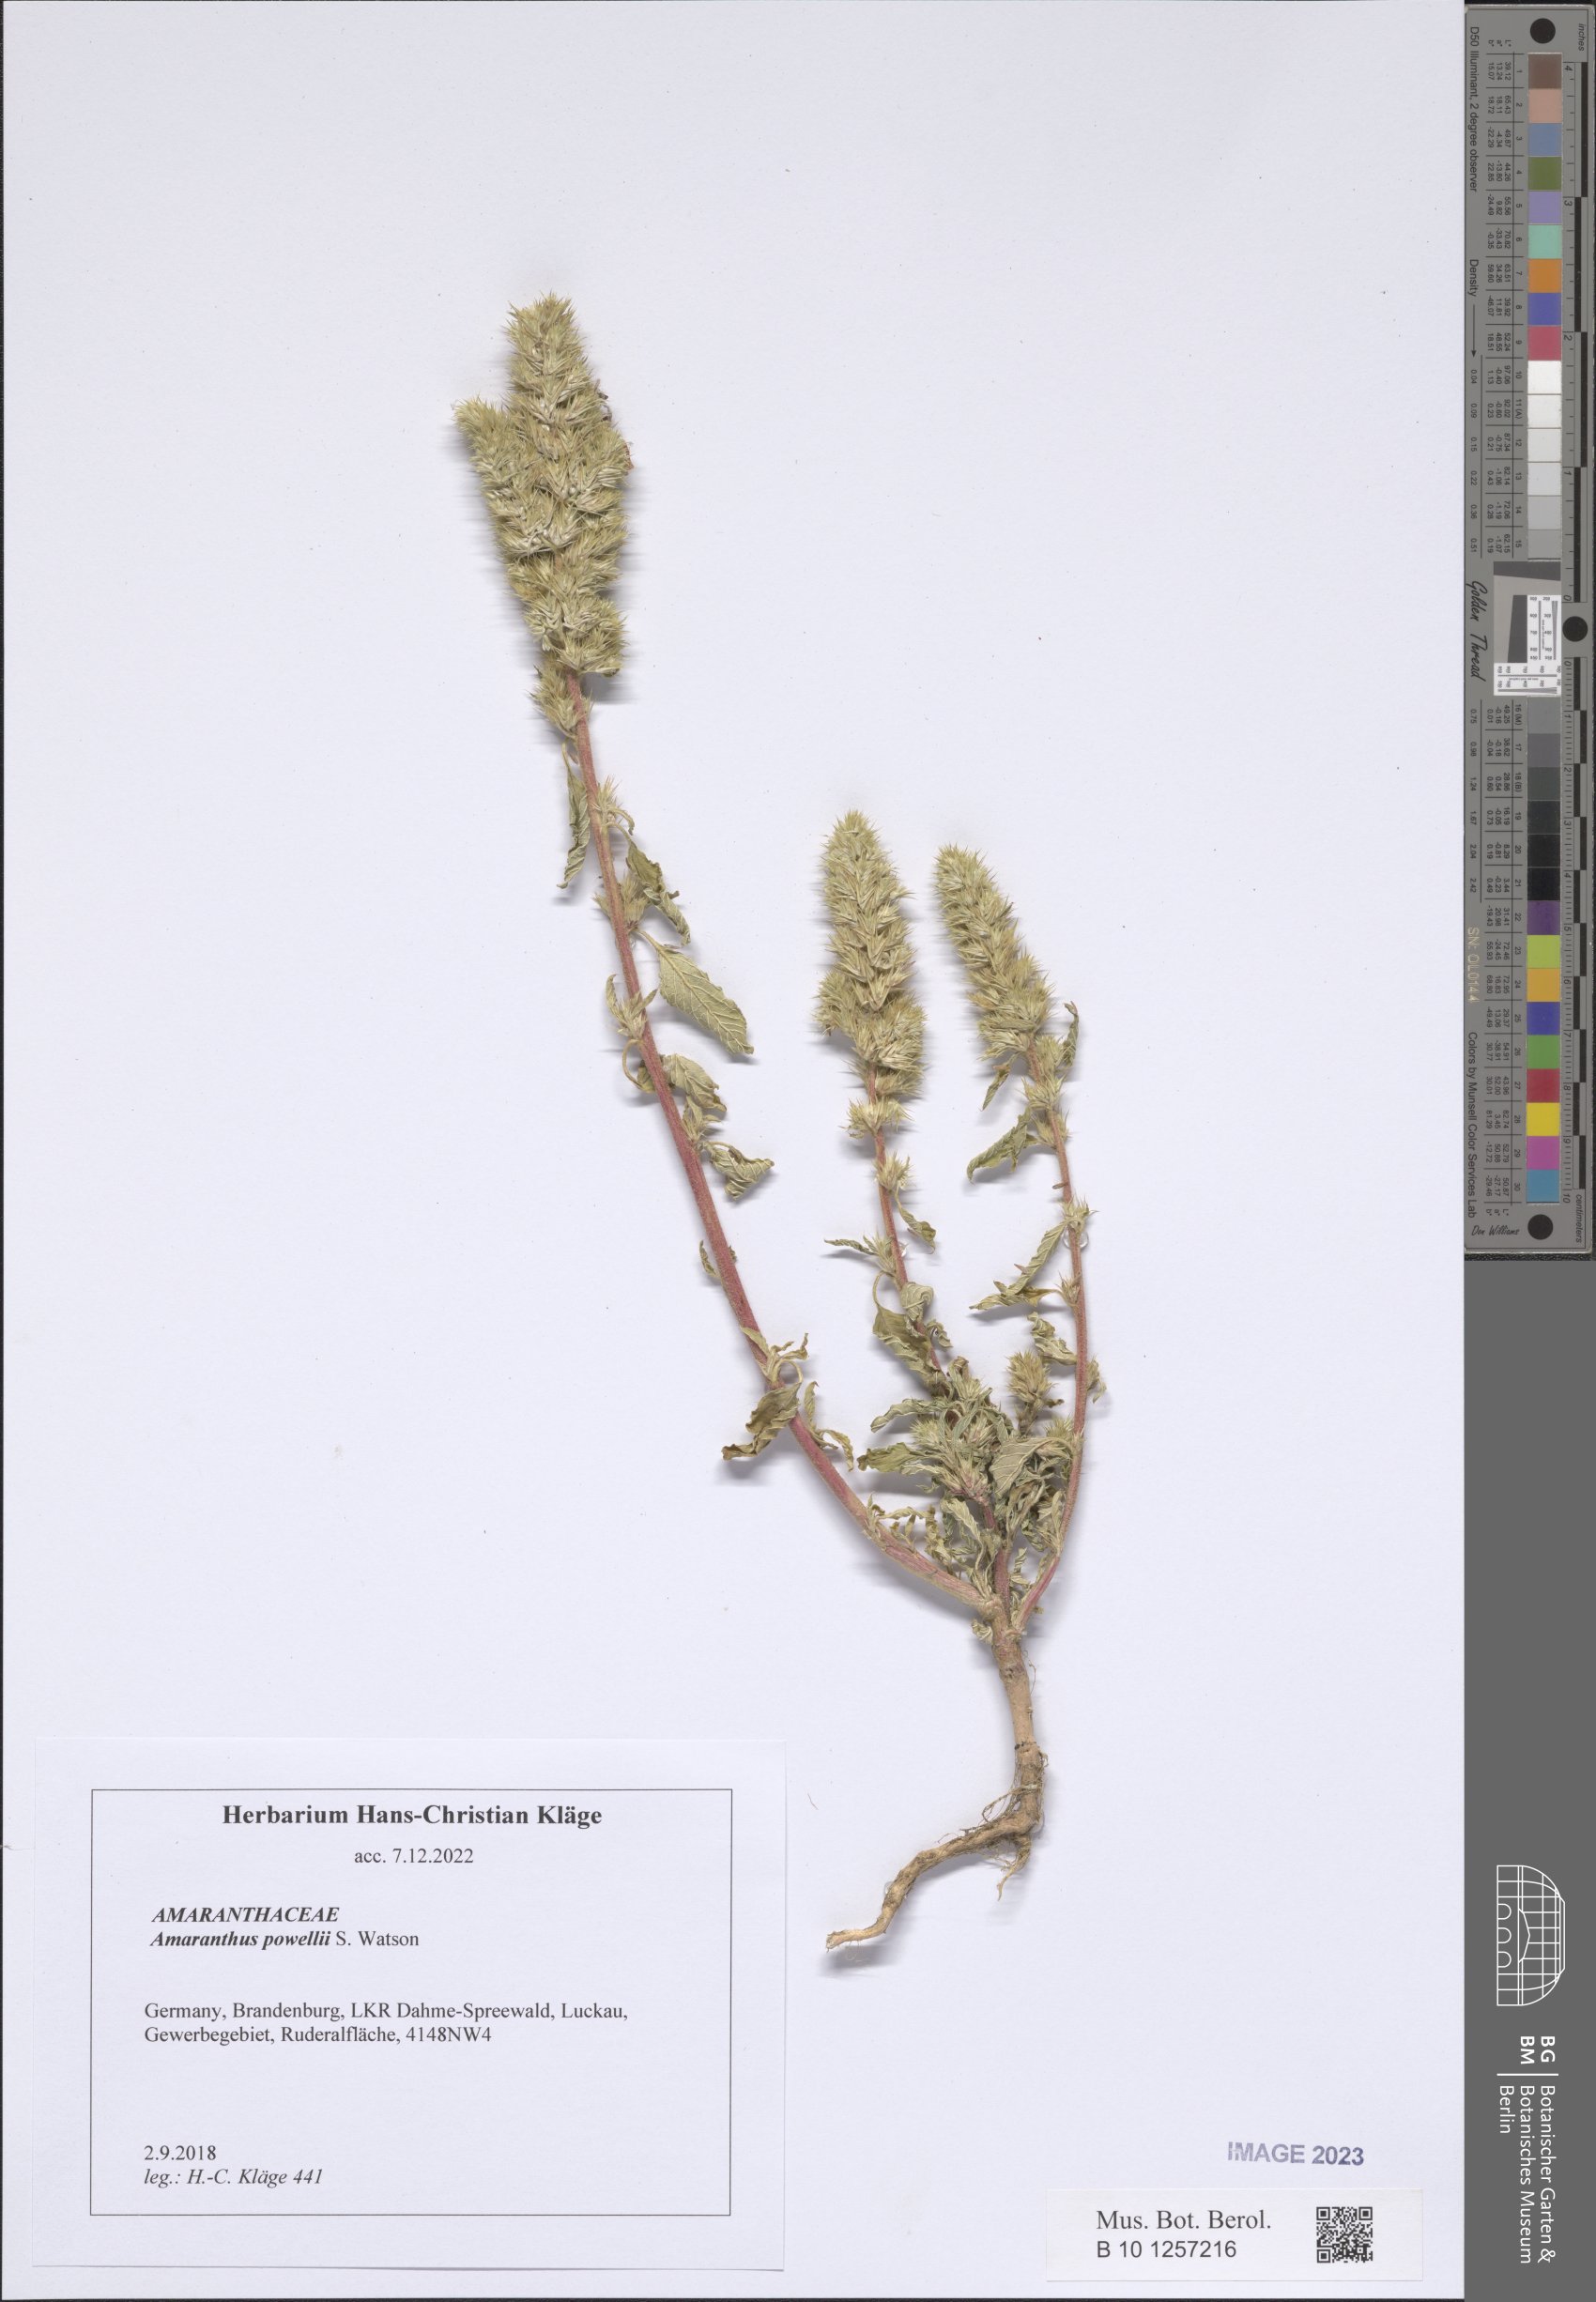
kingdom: Plantae
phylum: Tracheophyta
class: Magnoliopsida
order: Caryophyllales
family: Amaranthaceae
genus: Amaranthus
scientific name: Amaranthus powellii
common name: Powell's amaranth
